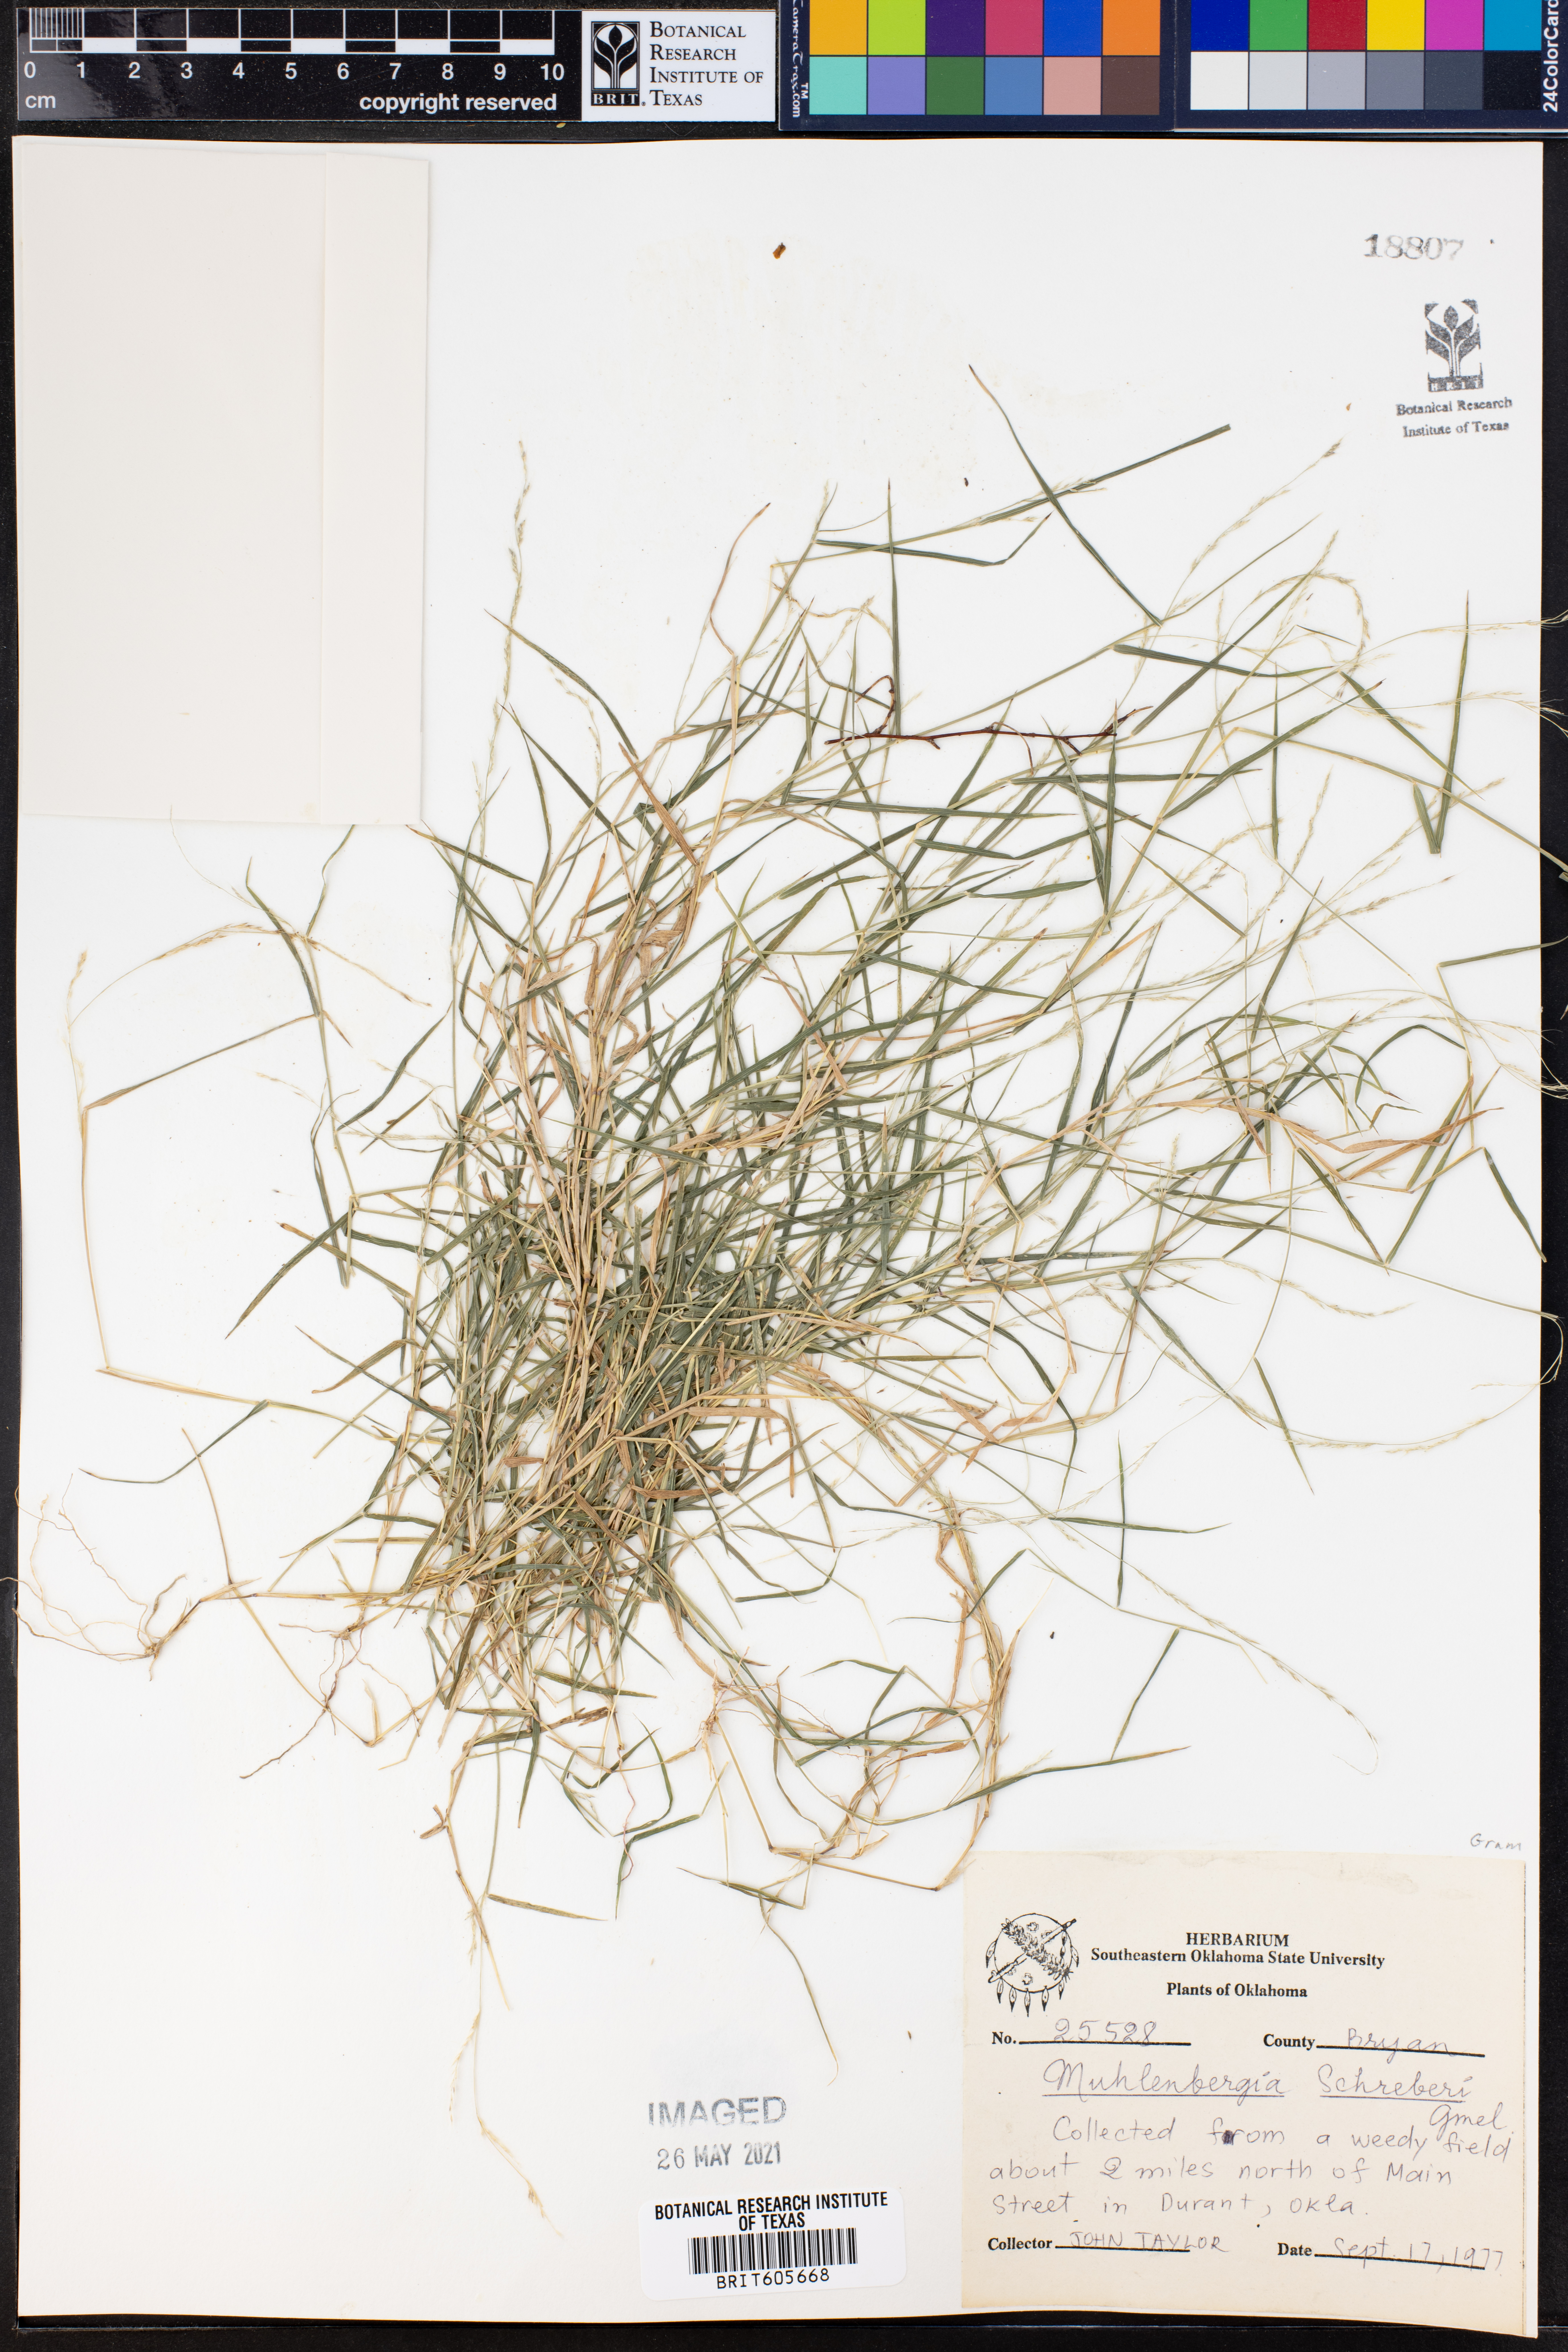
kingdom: Plantae
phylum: Tracheophyta
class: Liliopsida
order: Poales
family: Poaceae
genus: Muhlenbergia
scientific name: Muhlenbergia schreberi
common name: Nimblewill
